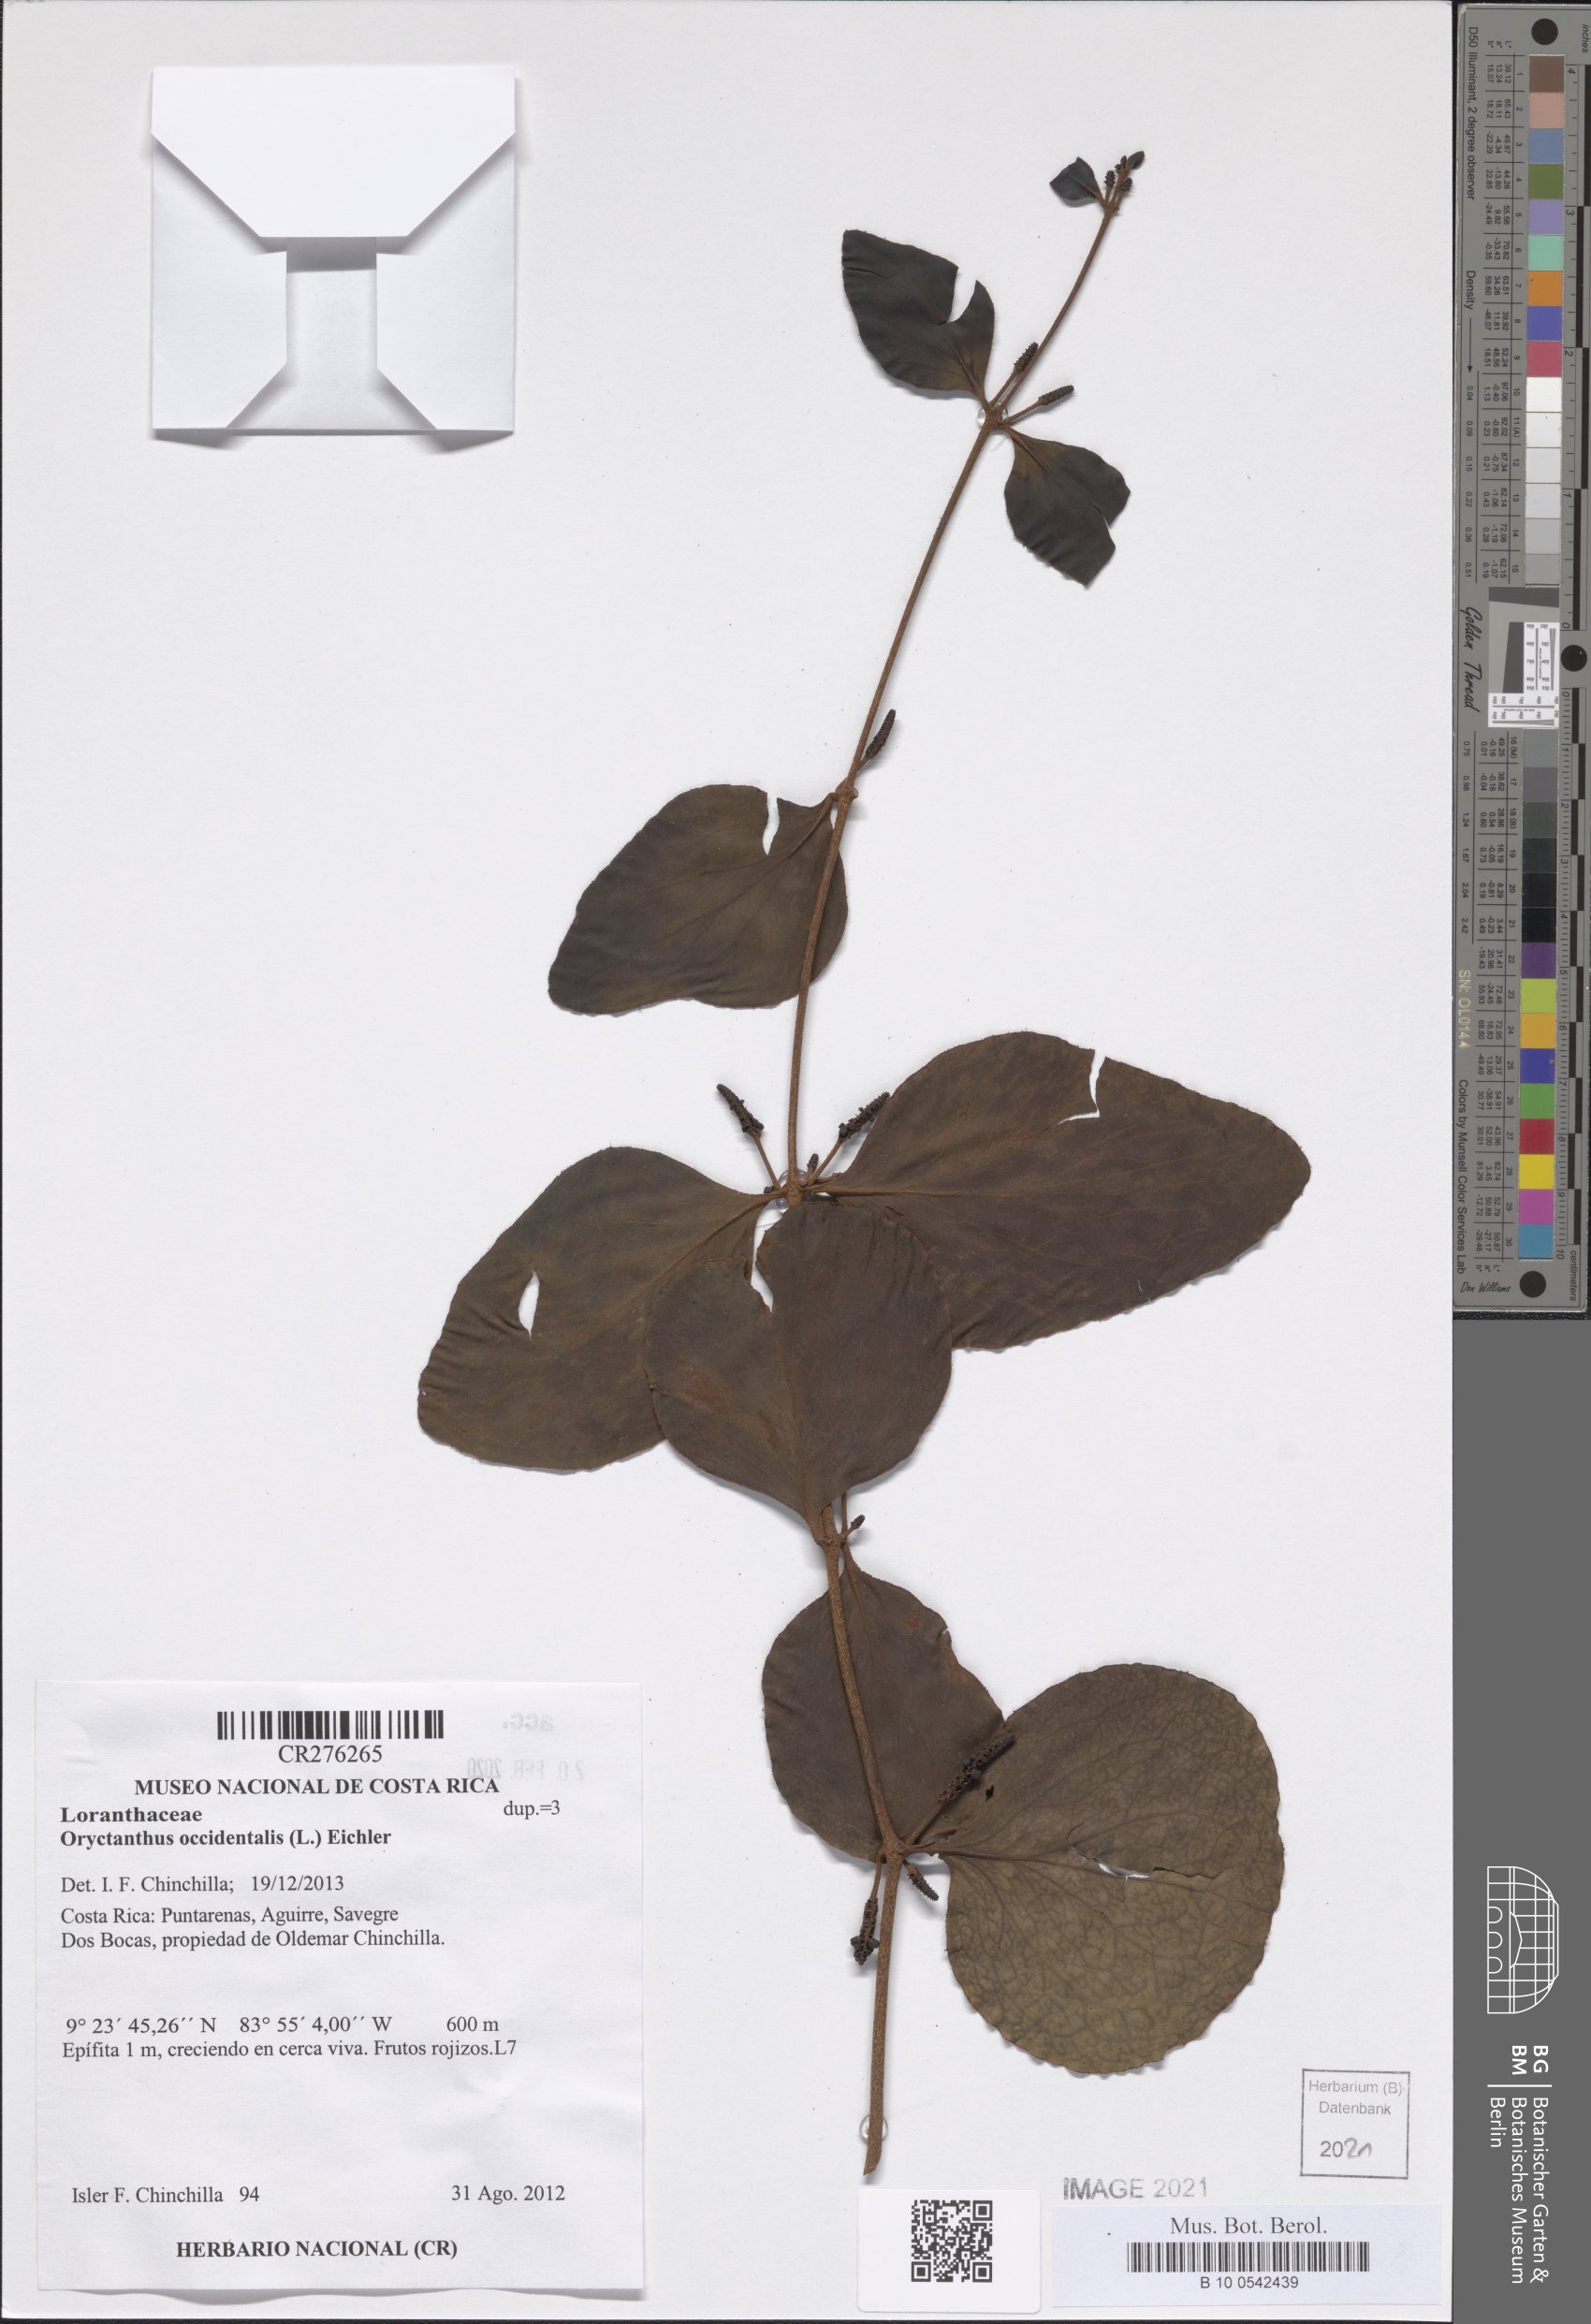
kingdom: Plantae
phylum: Tracheophyta
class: Magnoliopsida
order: Santalales
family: Loranthaceae
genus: Oryctanthus
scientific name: Oryctanthus occidentalis
